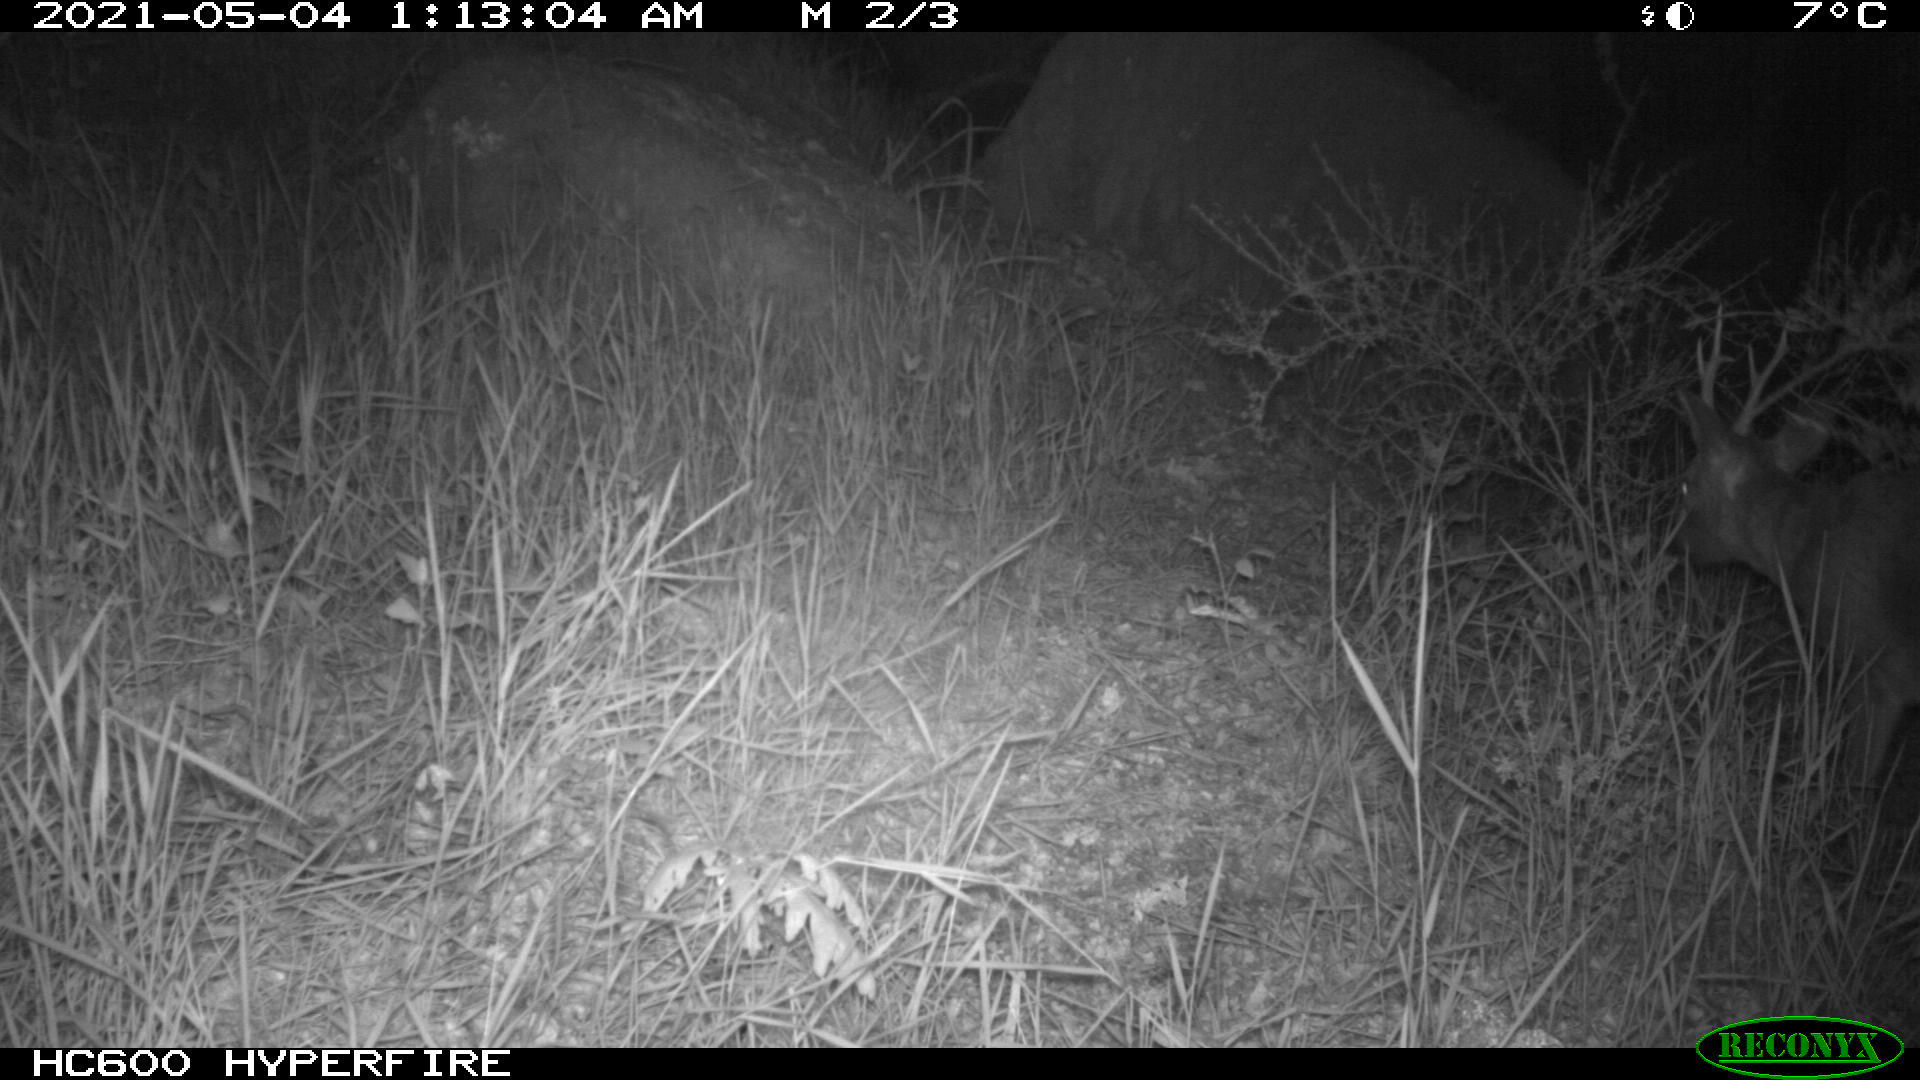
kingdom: Animalia
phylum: Chordata
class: Mammalia
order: Artiodactyla
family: Cervidae
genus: Capreolus
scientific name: Capreolus capreolus
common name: Western roe deer
